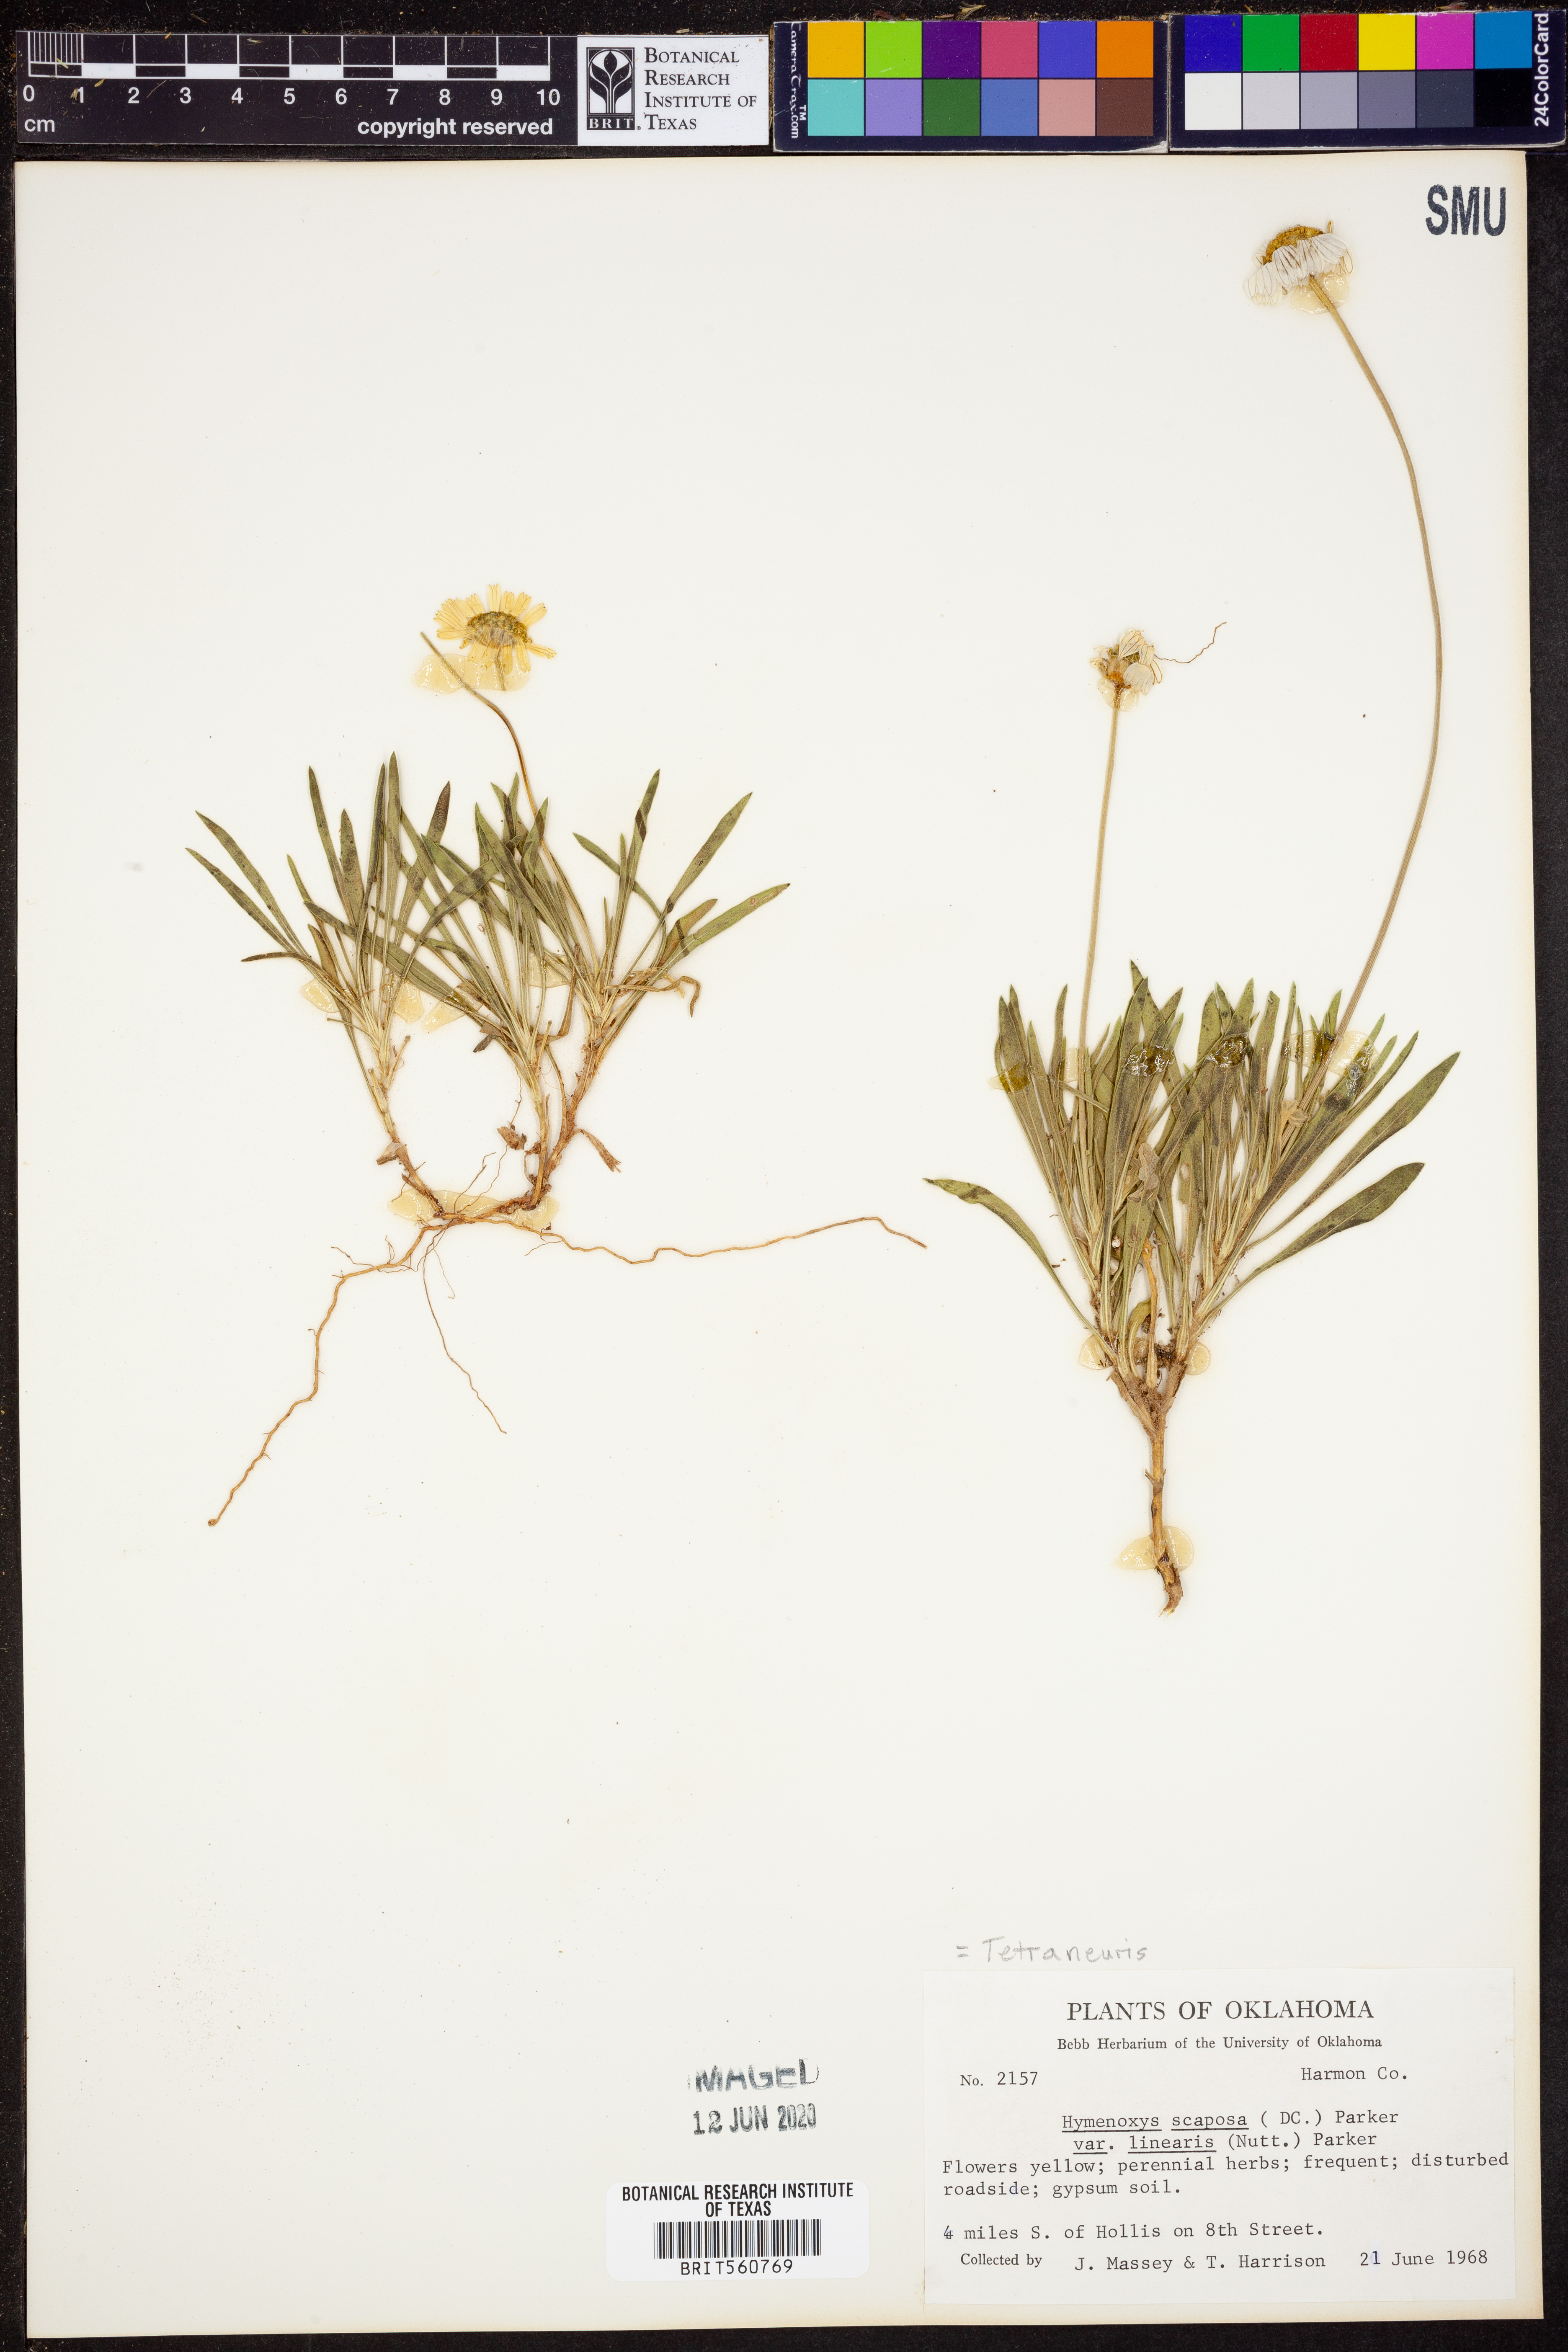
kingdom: Plantae
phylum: Tracheophyta
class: Magnoliopsida
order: Asterales
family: Asteraceae
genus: Tetraneuris
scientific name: Tetraneuris scaposa
